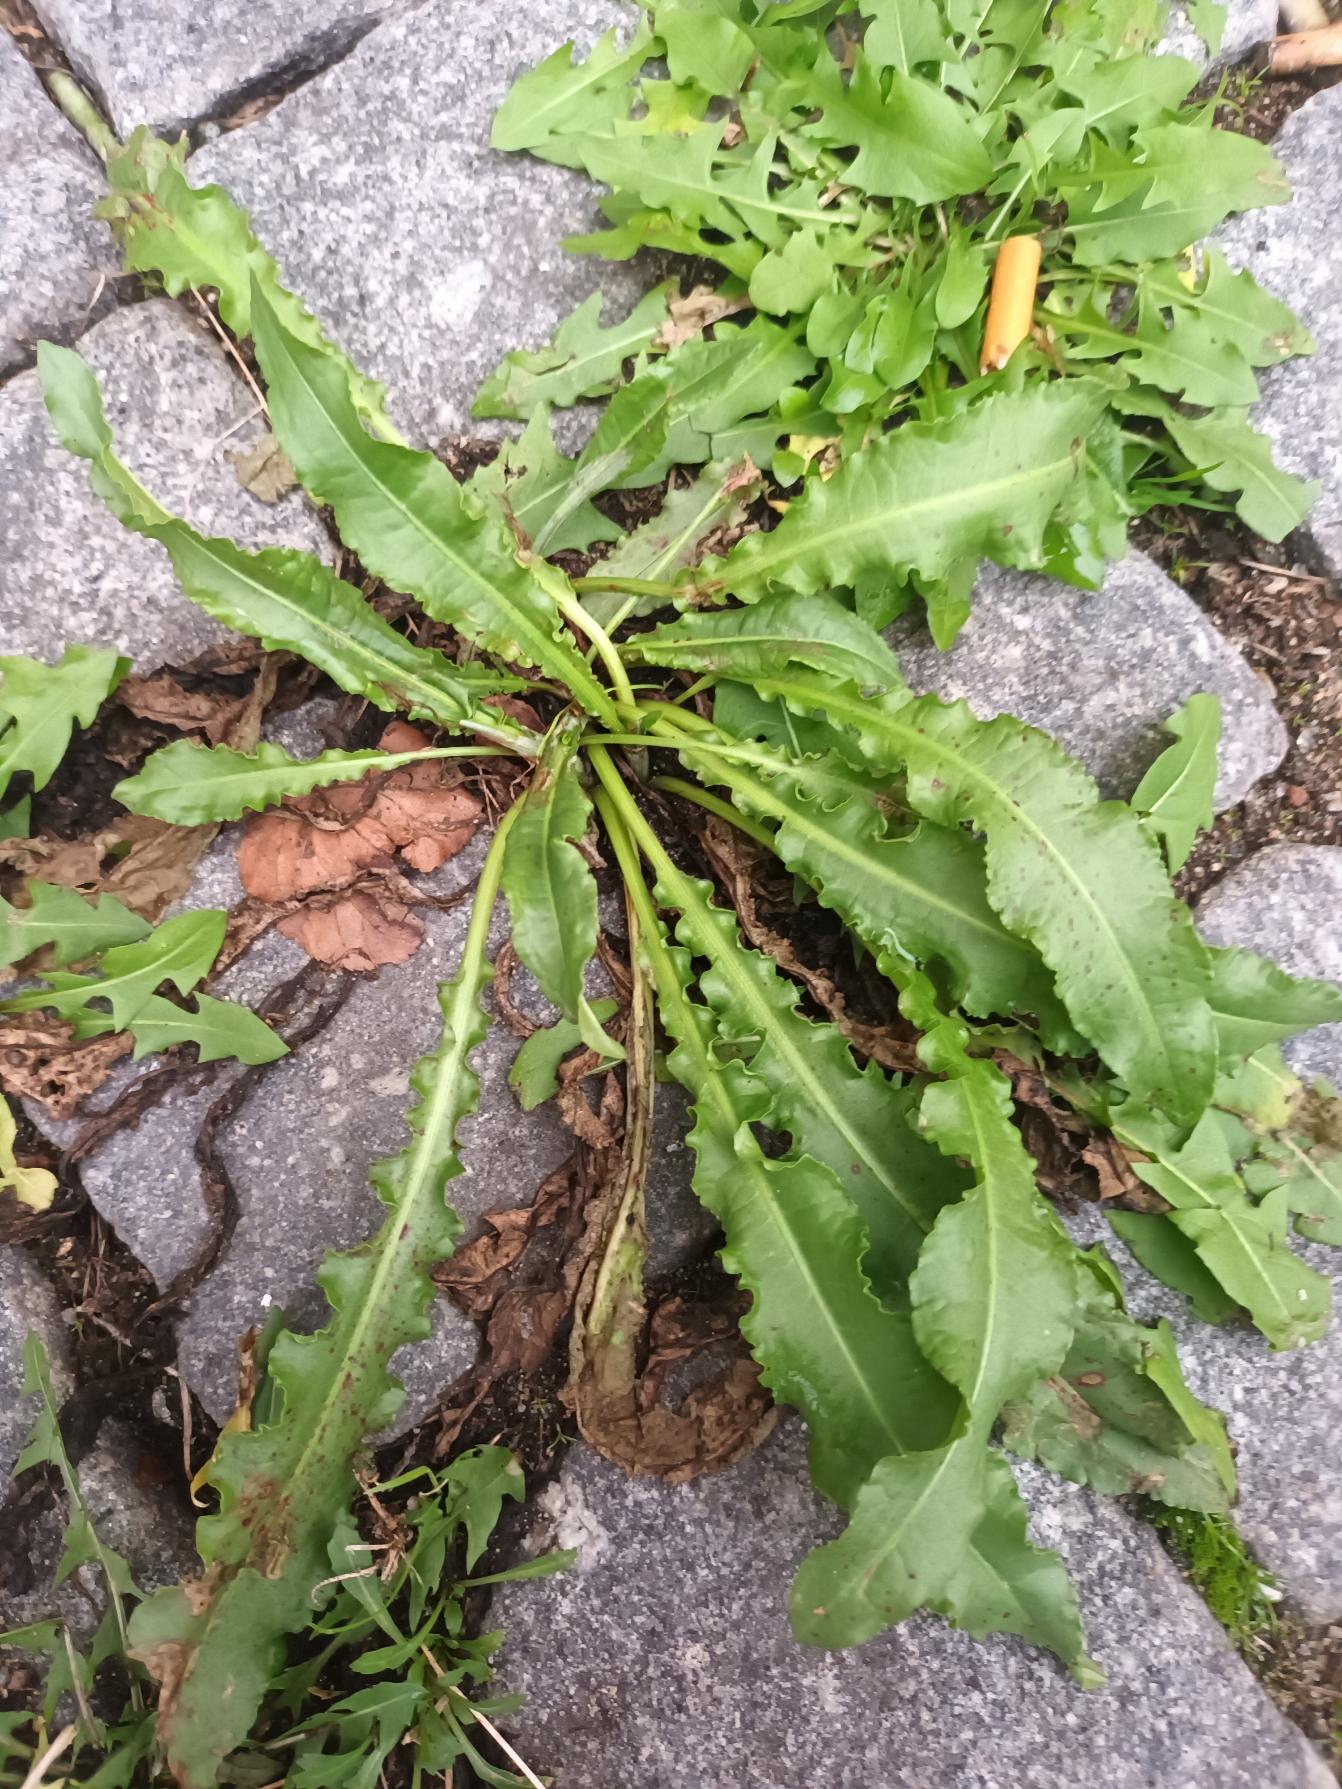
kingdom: Plantae
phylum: Tracheophyta
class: Magnoliopsida
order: Caryophyllales
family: Polygonaceae
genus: Rumex
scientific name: Rumex crispus
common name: Kruset skræppe
